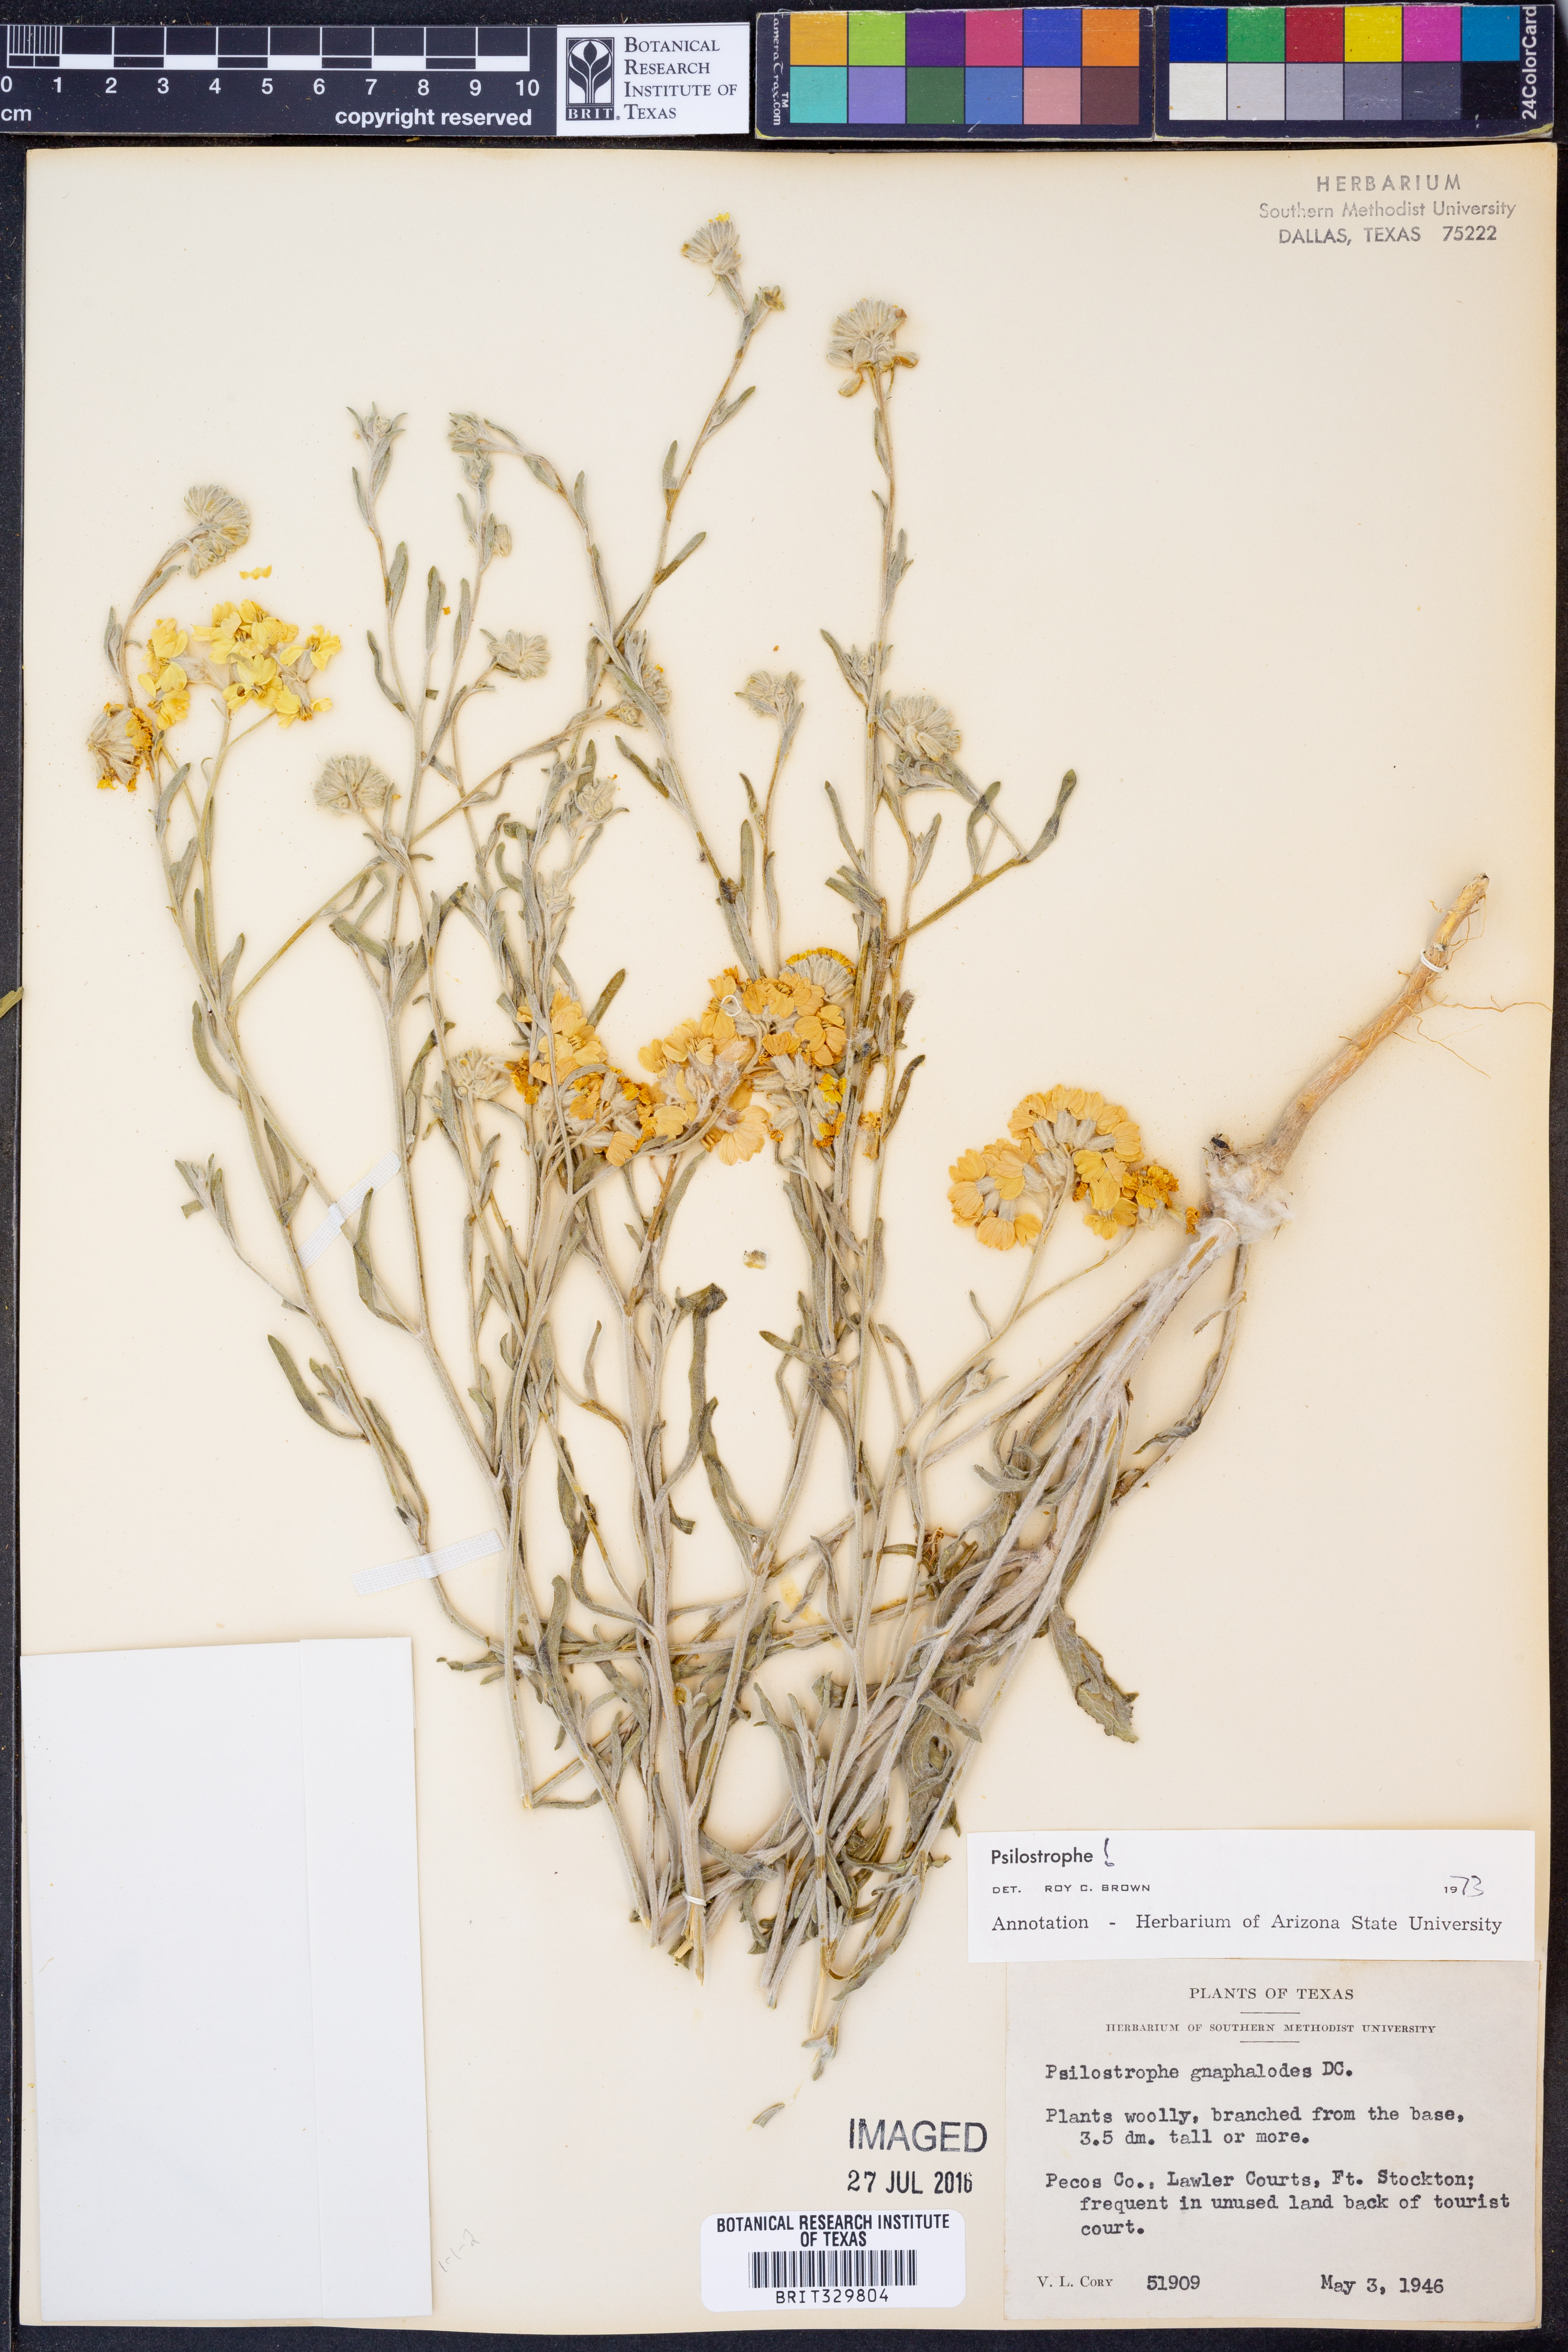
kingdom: Plantae
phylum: Tracheophyta
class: Magnoliopsida
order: Asterales
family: Asteraceae
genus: Psilostrophe
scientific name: Psilostrophe gnaphalioides
